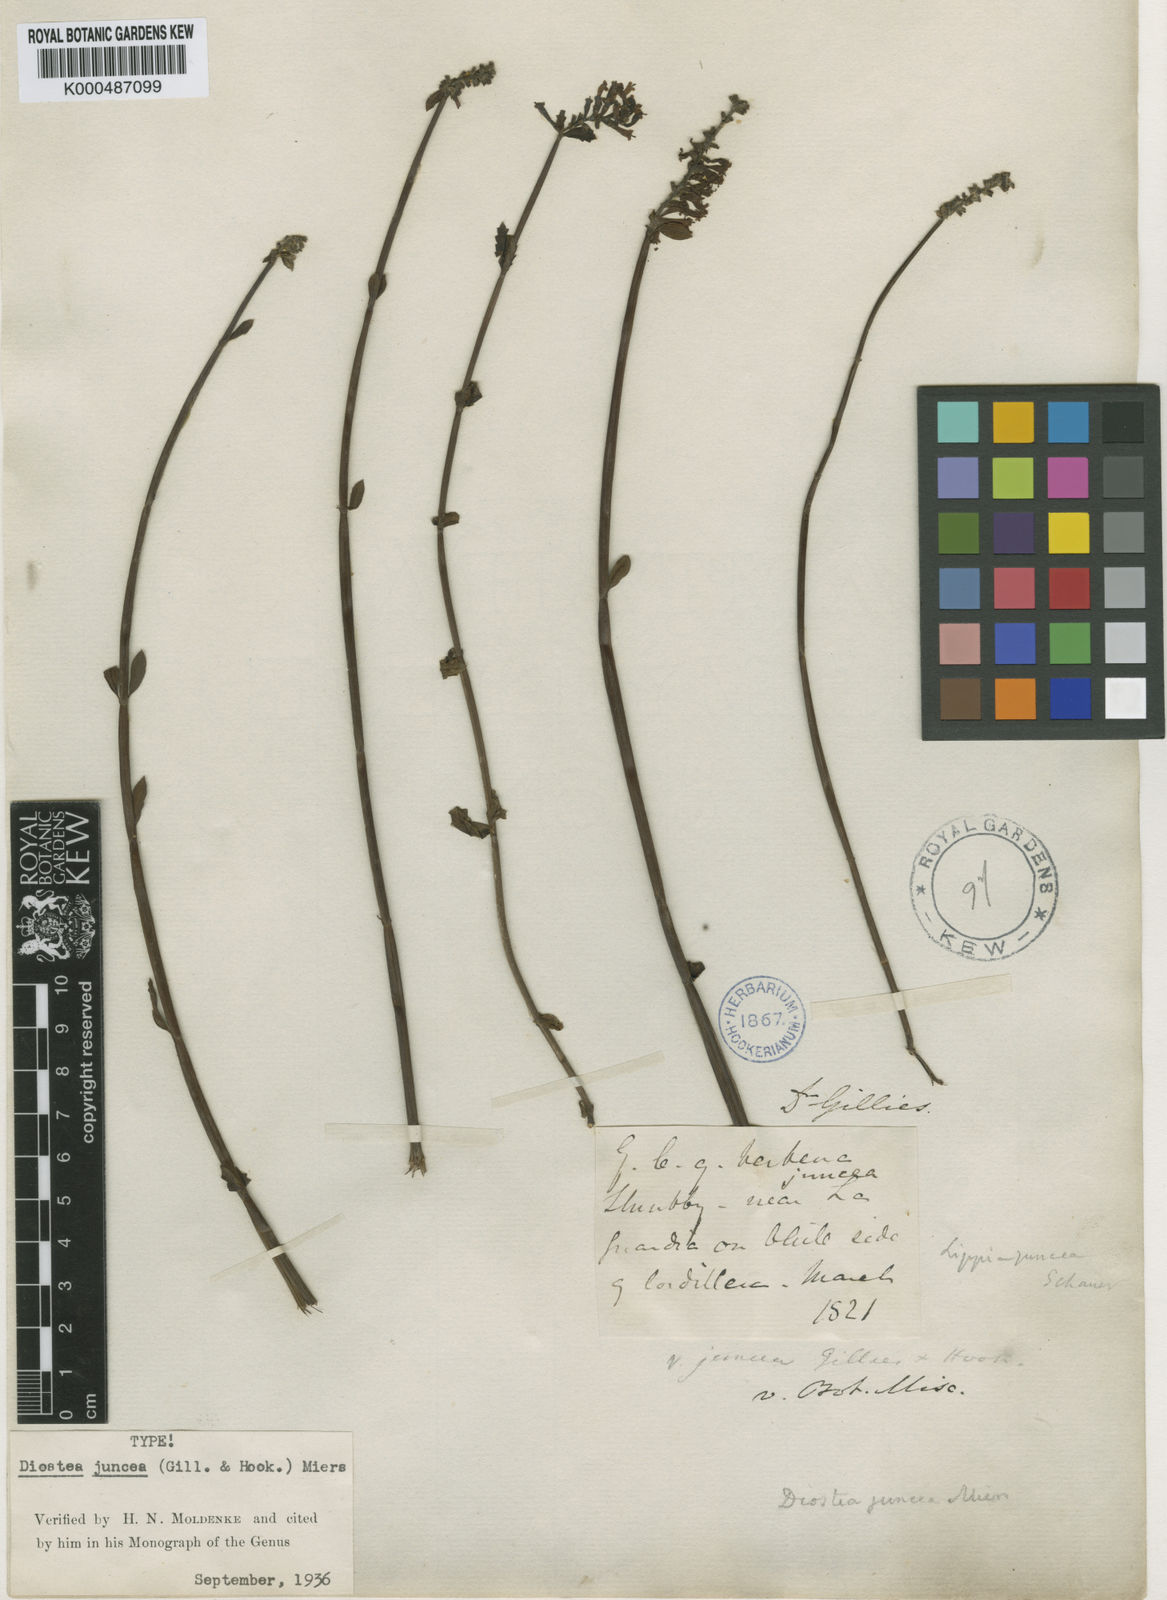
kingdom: Plantae
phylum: Tracheophyta
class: Magnoliopsida
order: Lamiales
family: Verbenaceae
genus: Diostea
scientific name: Diostea juncea
